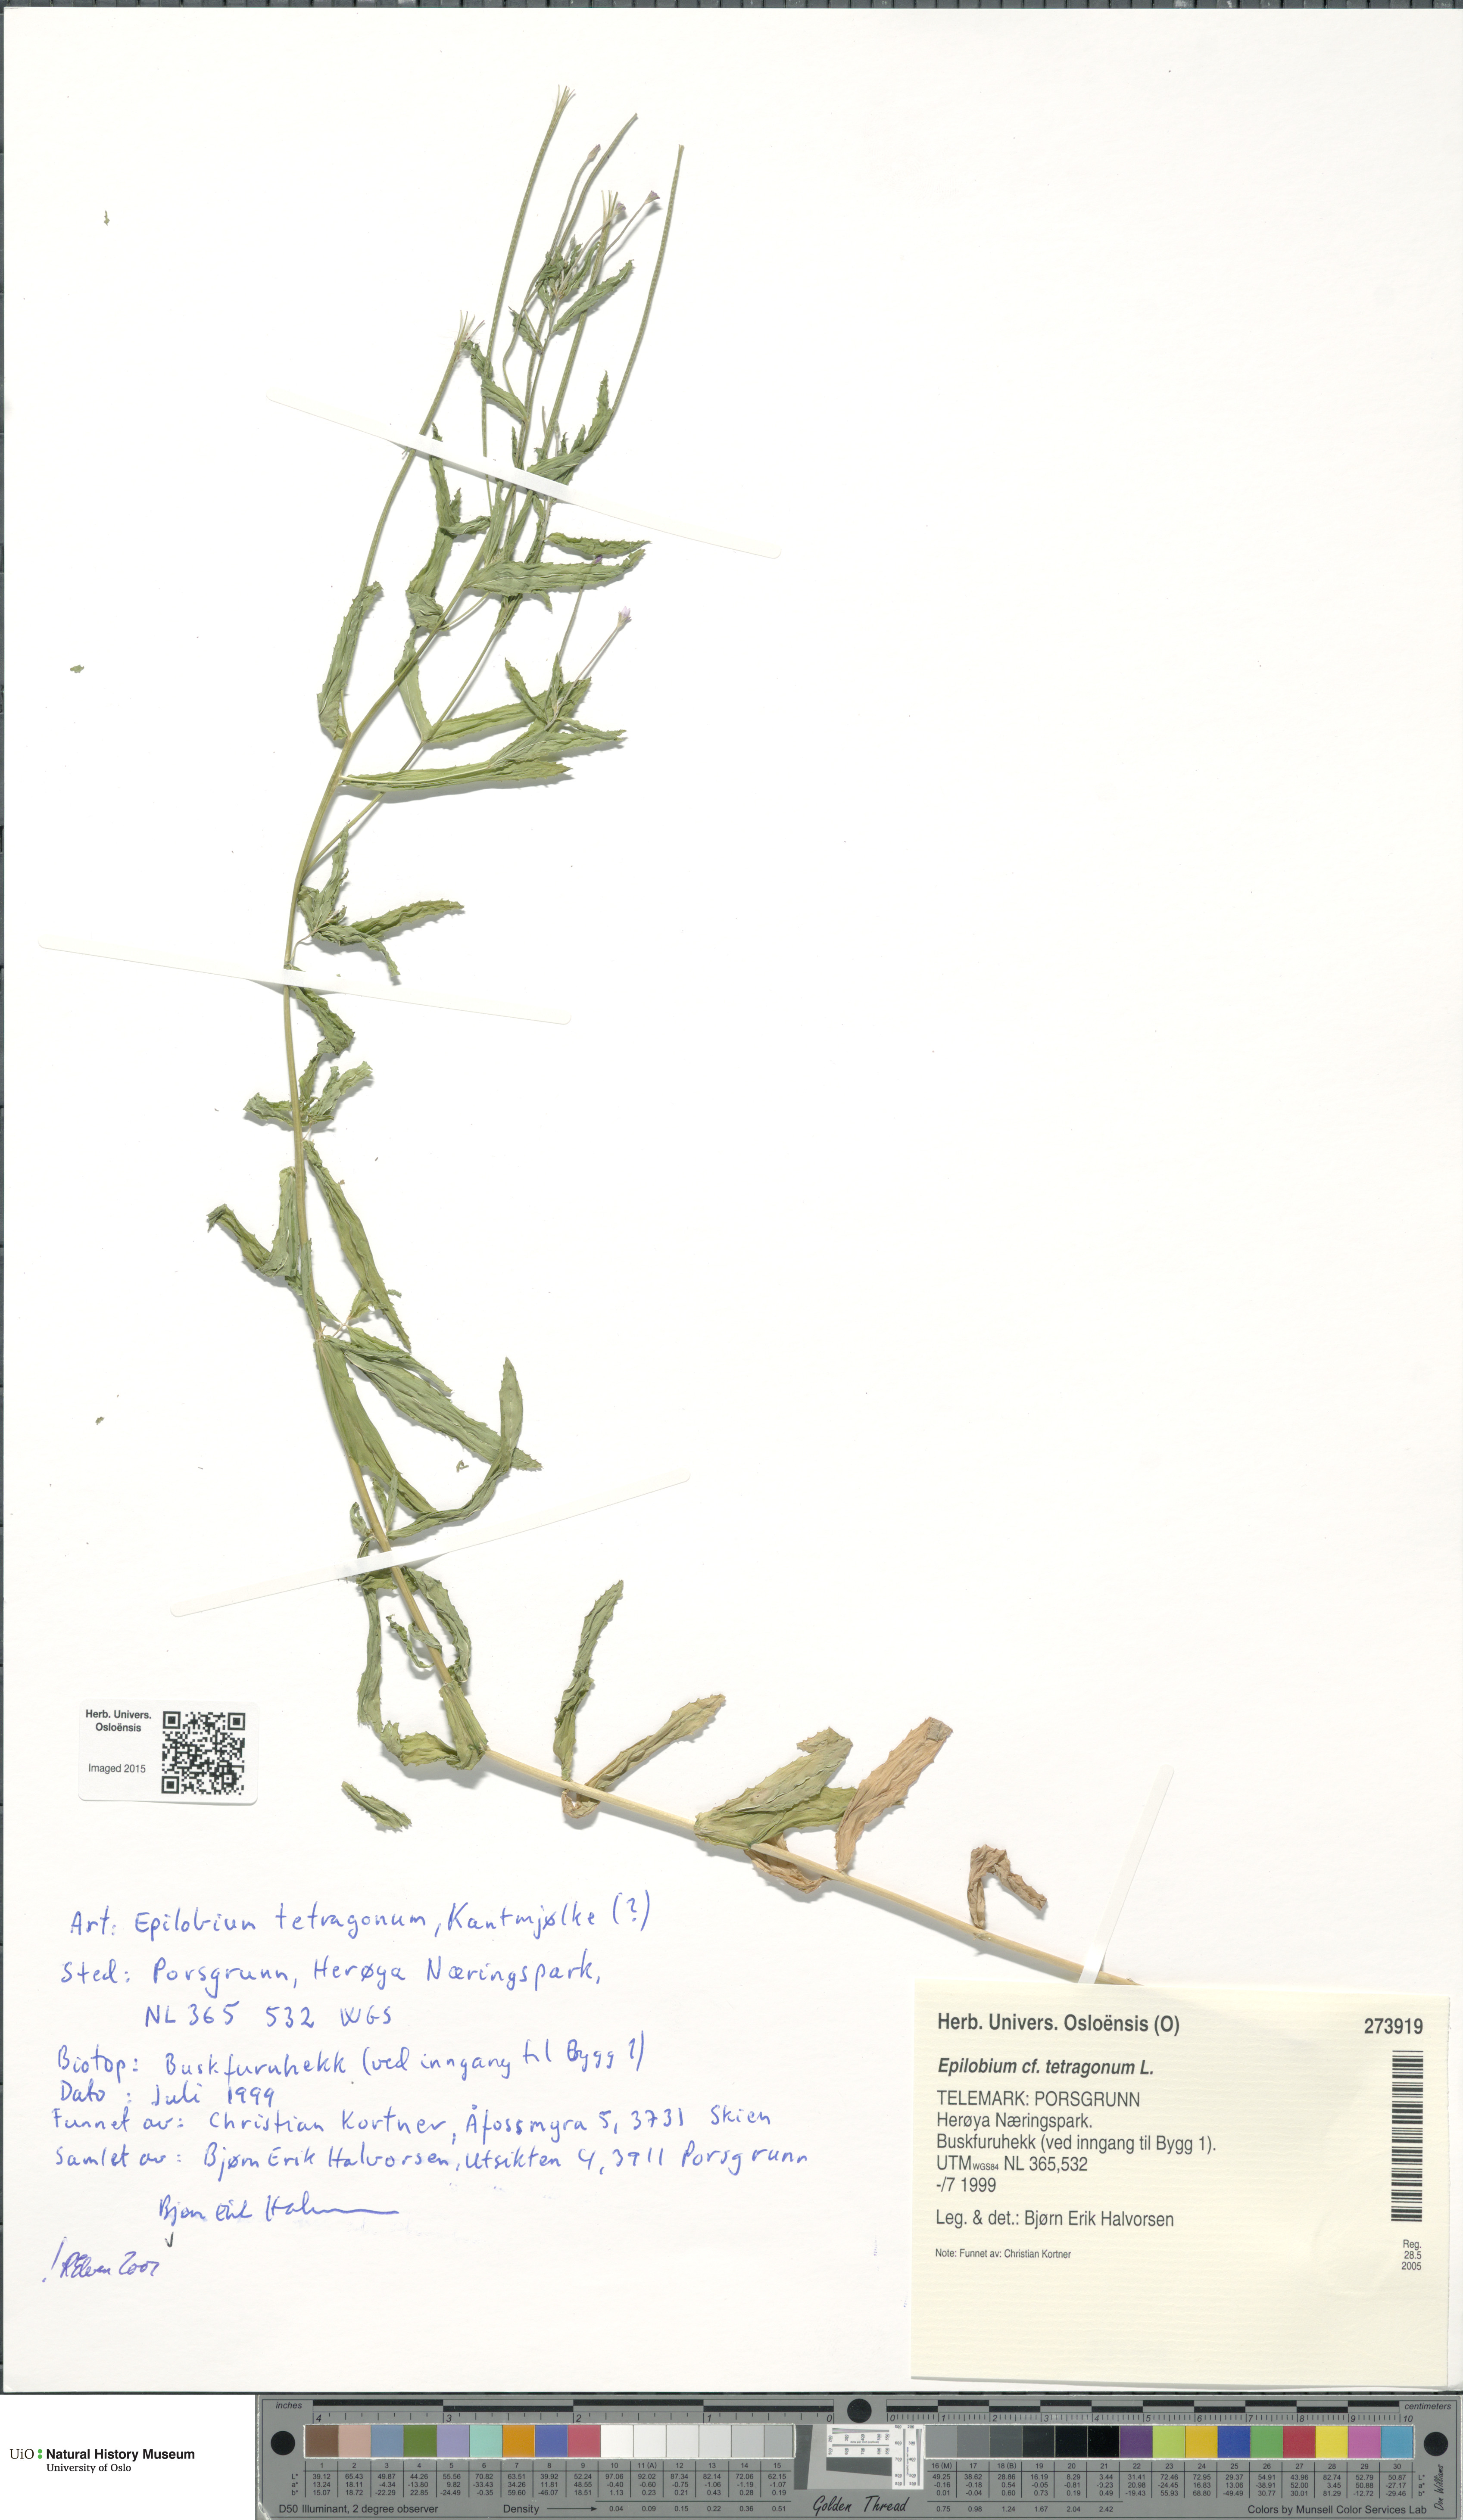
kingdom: Plantae
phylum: Tracheophyta
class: Magnoliopsida
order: Myrtales
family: Onagraceae
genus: Epilobium
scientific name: Epilobium tetragonum
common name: Square-stemmed willowherb
